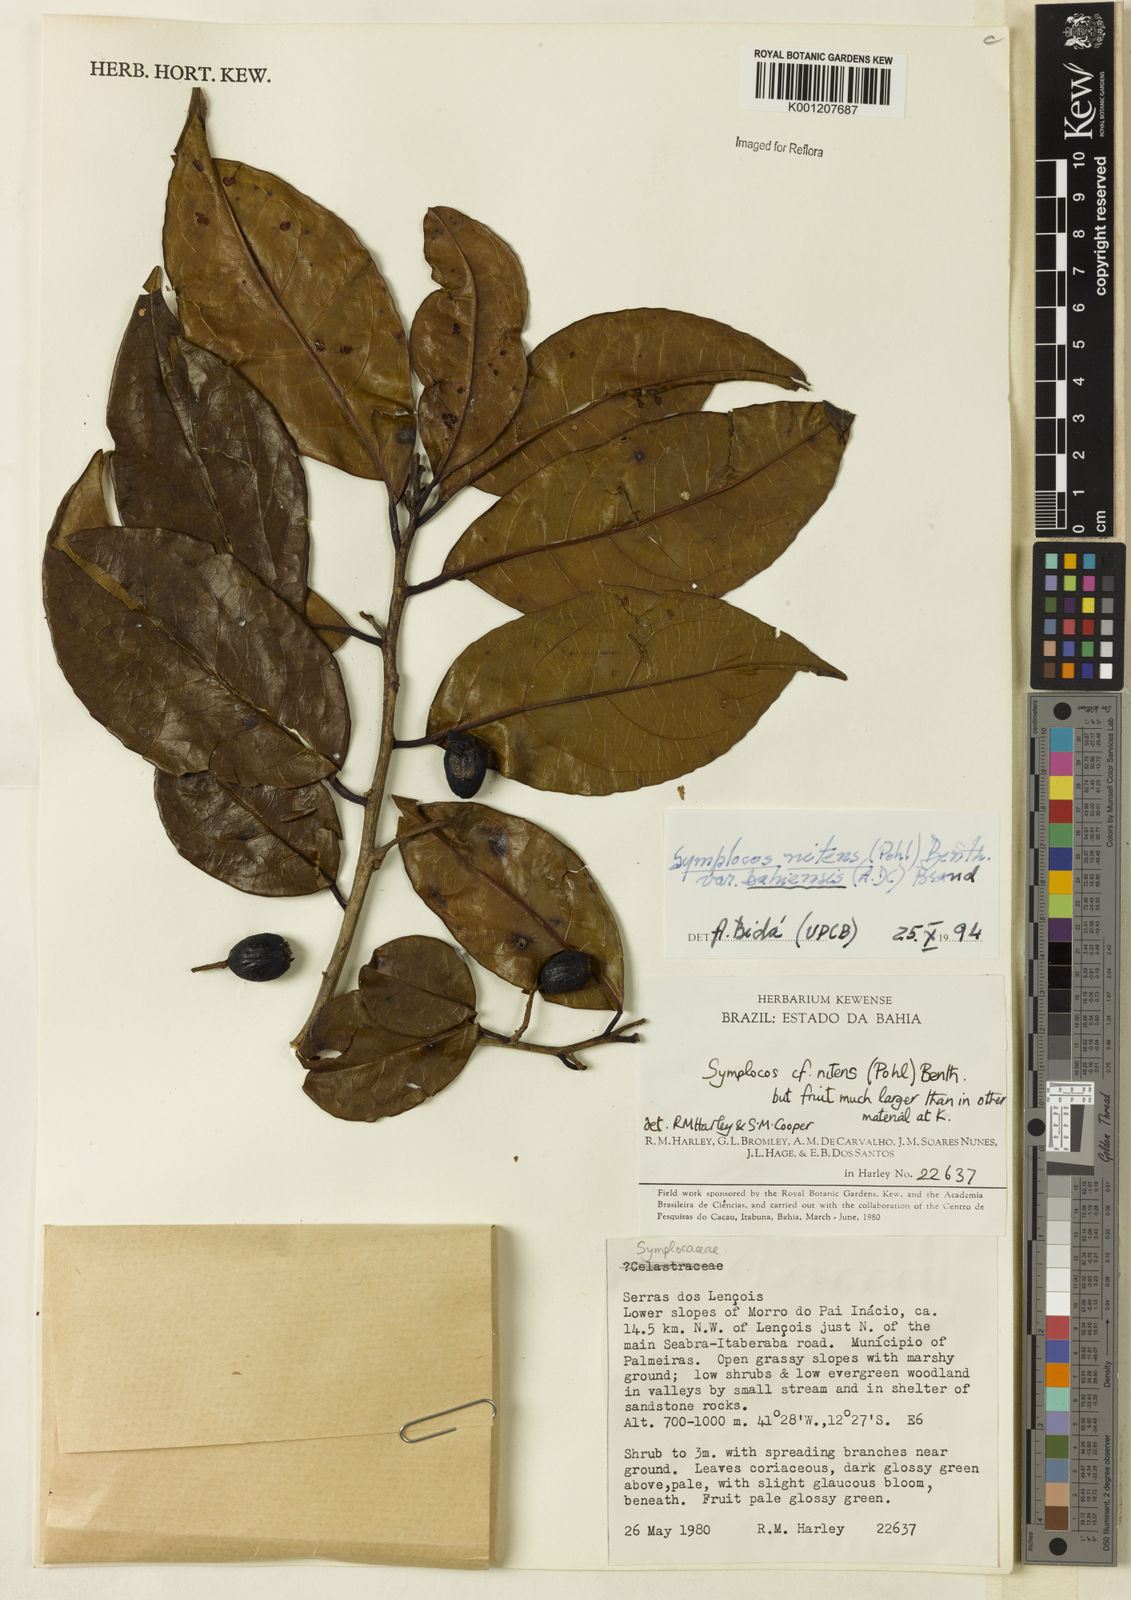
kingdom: Plantae
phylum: Tracheophyta
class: Magnoliopsida
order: Ericales
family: Symplocaceae
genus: Symplocos
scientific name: Symplocos nitens
